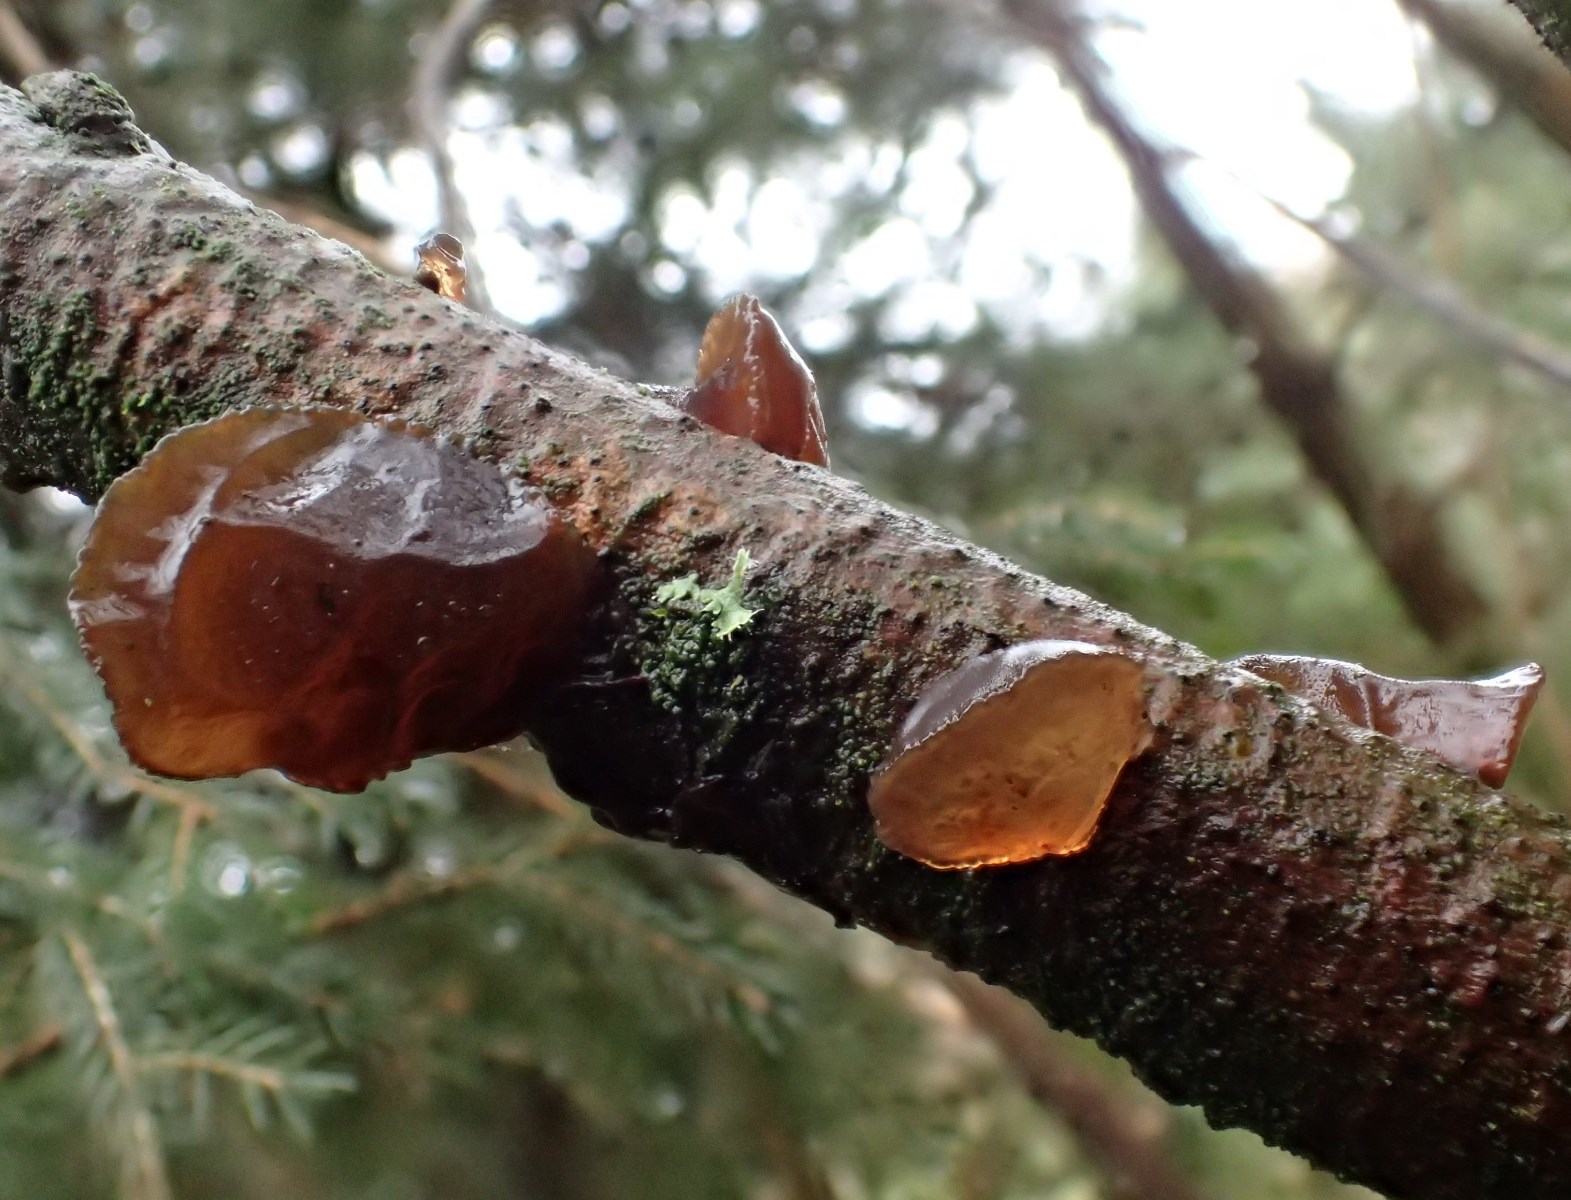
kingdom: Fungi
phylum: Basidiomycota
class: Agaricomycetes
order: Auriculariales
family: Auriculariaceae
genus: Exidia
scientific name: Exidia recisa
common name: pile-bævretop
